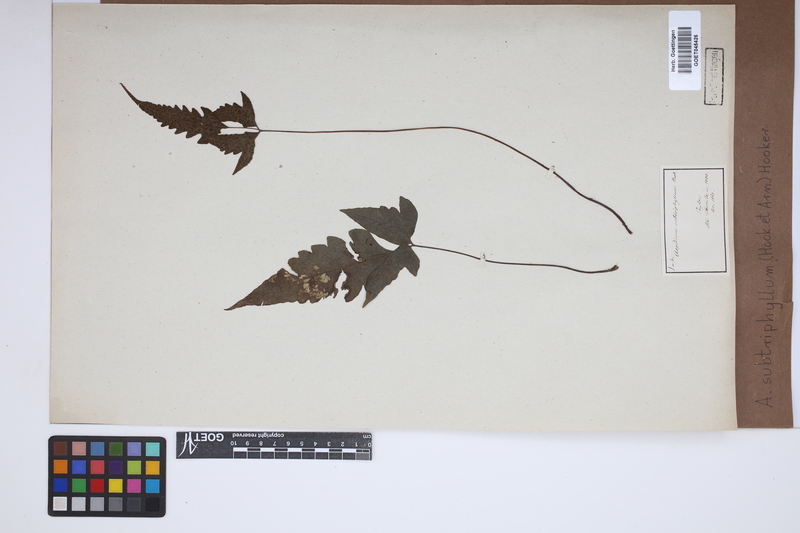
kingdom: Plantae
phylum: Tracheophyta
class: Polypodiopsida
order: Polypodiales
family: Tectariaceae
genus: Tectaria
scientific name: Tectaria subtriphylla
